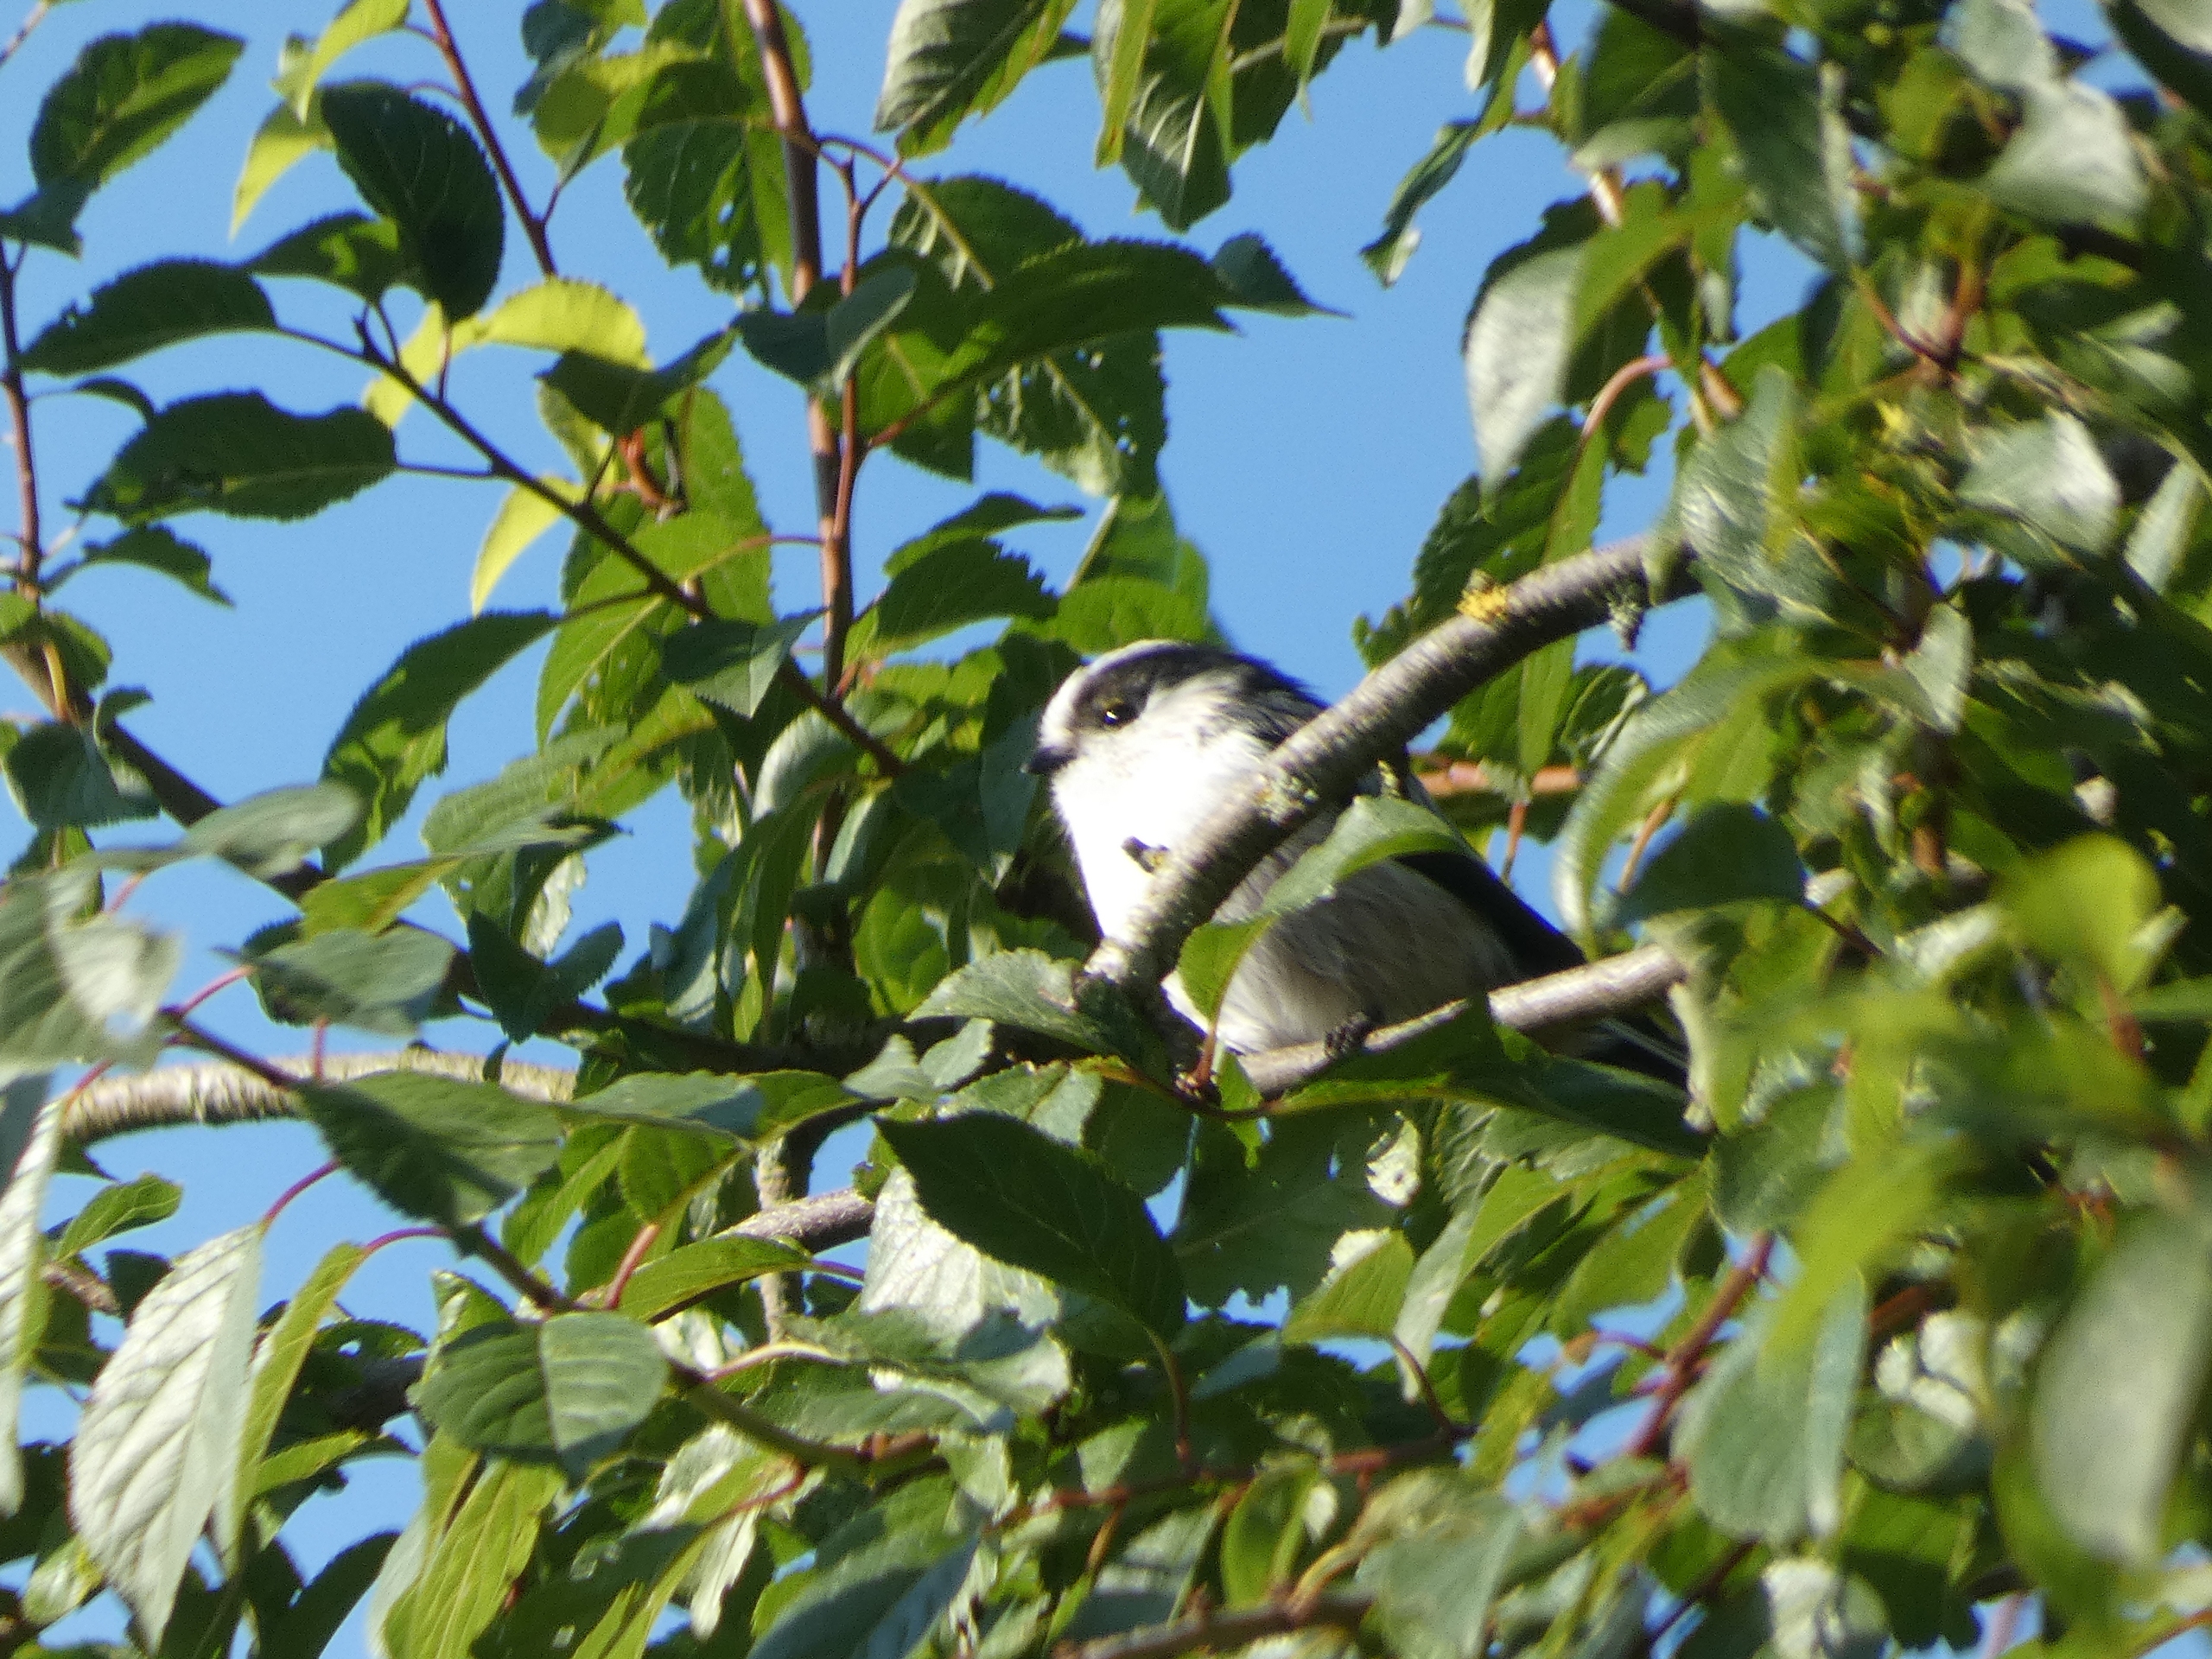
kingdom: Animalia
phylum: Chordata
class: Aves
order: Passeriformes
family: Aegithalidae
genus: Aegithalos
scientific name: Aegithalos caudatus
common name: Sydlig halemejse
